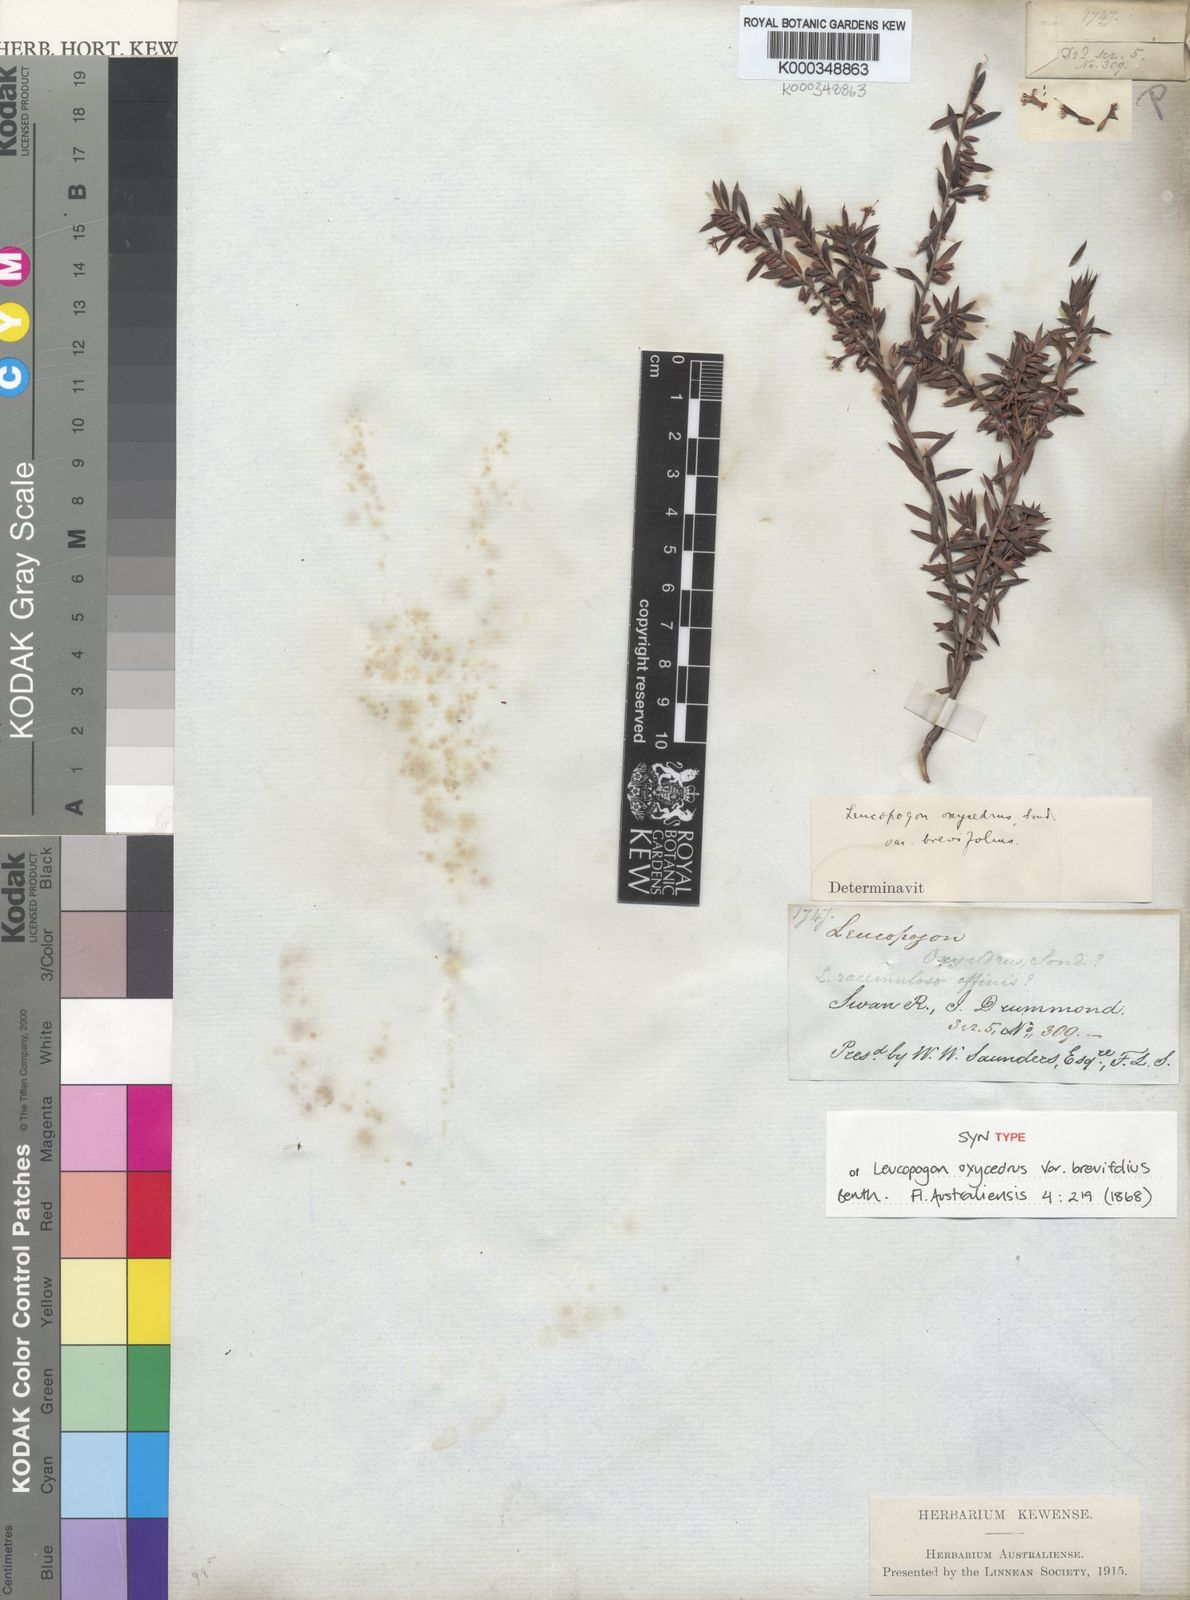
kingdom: Plantae
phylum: Tracheophyta
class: Magnoliopsida
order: Ericales
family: Ericaceae
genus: Leptecophylla
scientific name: Leptecophylla oxycedrus
